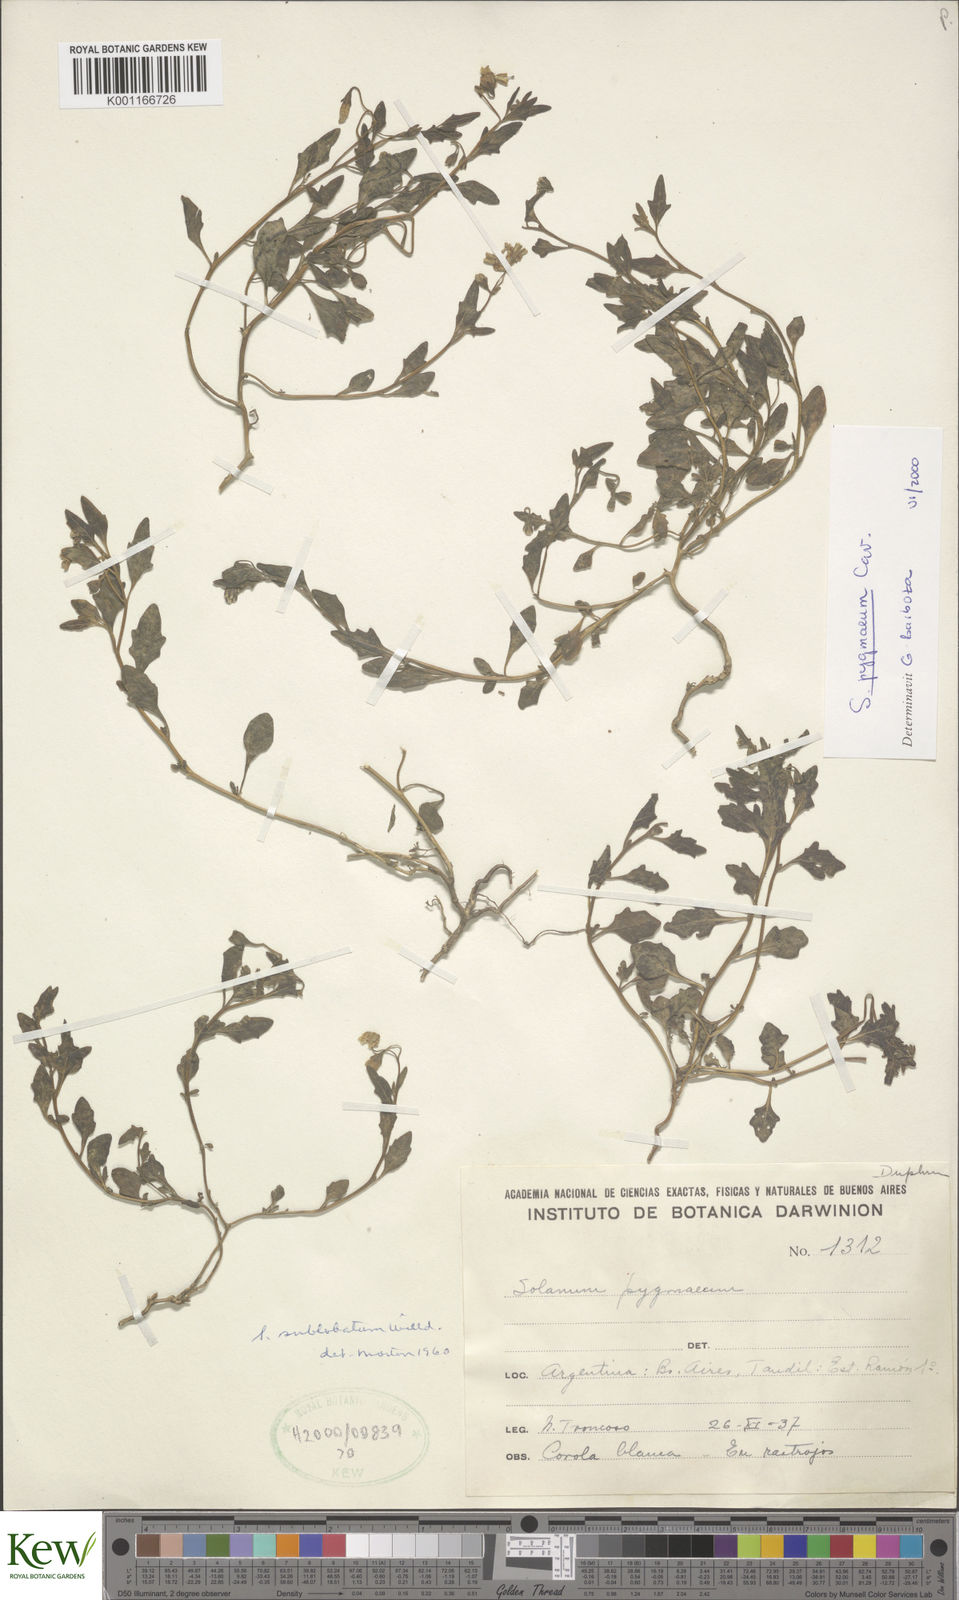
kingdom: Plantae
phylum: Tracheophyta
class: Magnoliopsida
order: Solanales
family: Solanaceae
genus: Solanum
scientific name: Solanum pygmaeum
